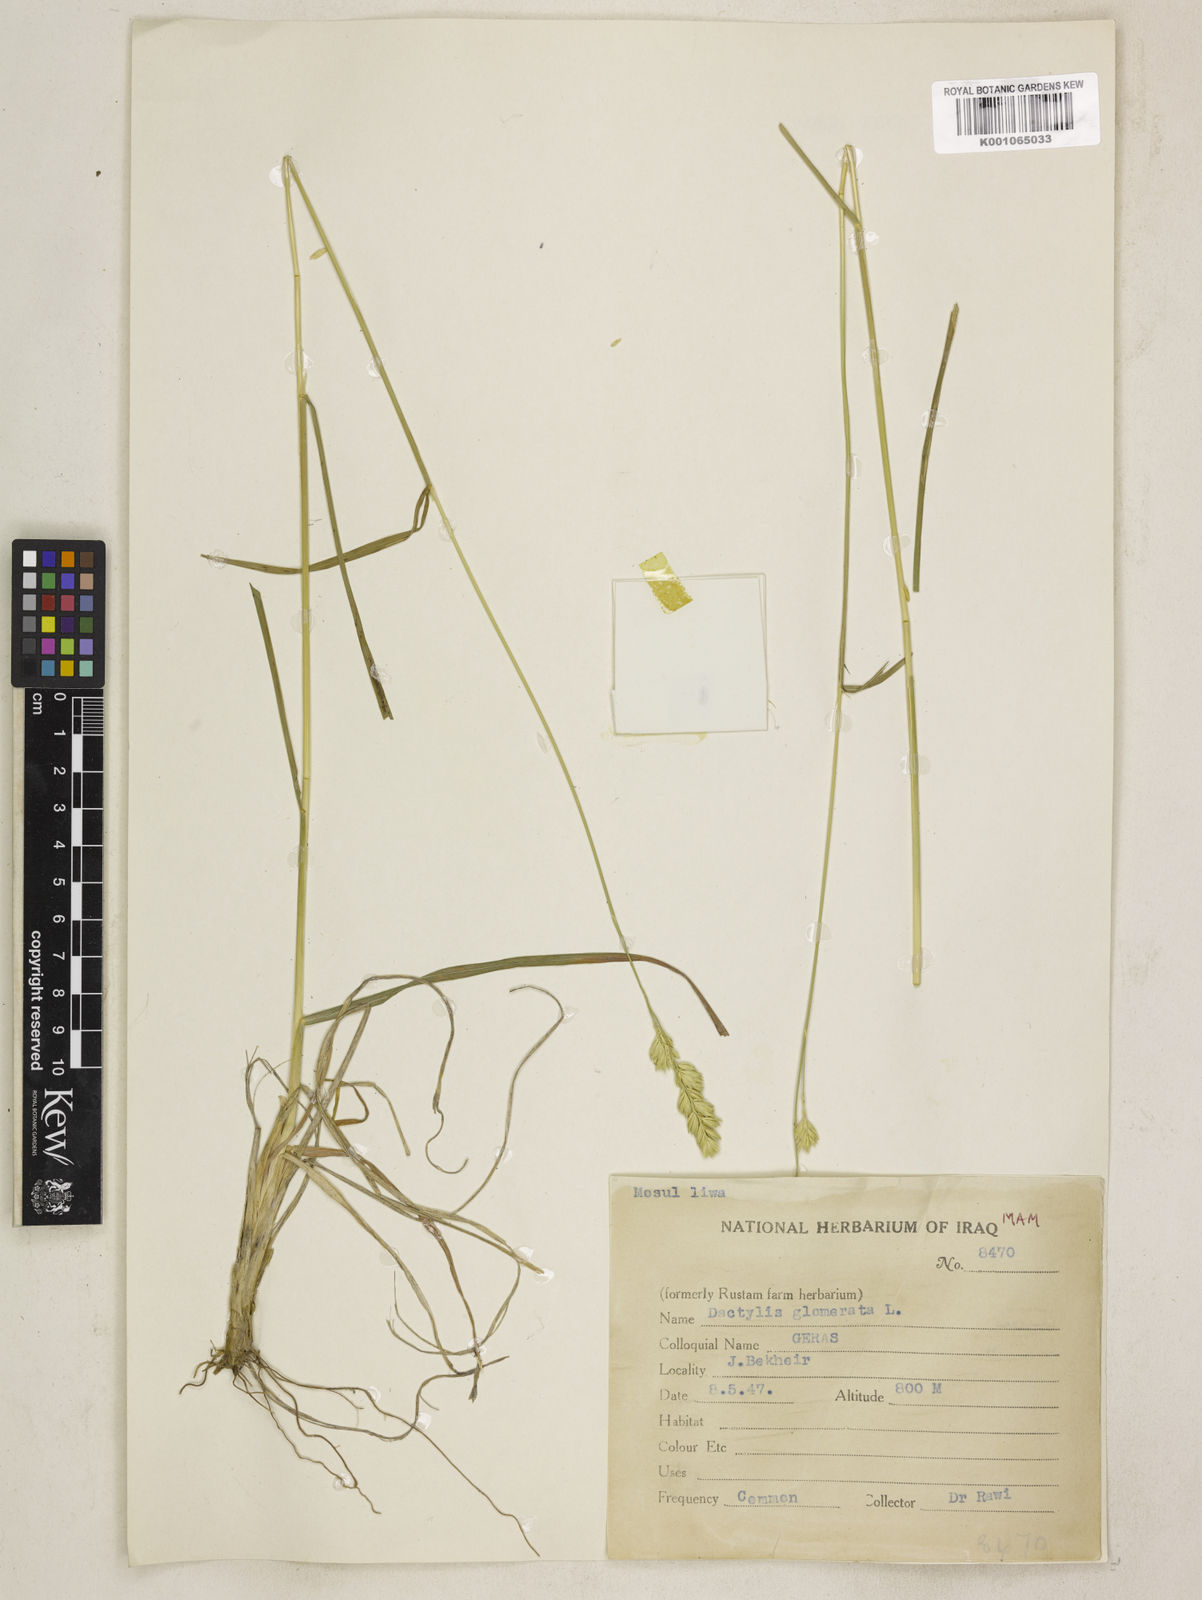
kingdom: Plantae
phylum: Tracheophyta
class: Liliopsida
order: Poales
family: Poaceae
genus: Dactylis
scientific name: Dactylis glomerata
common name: Orchardgrass
